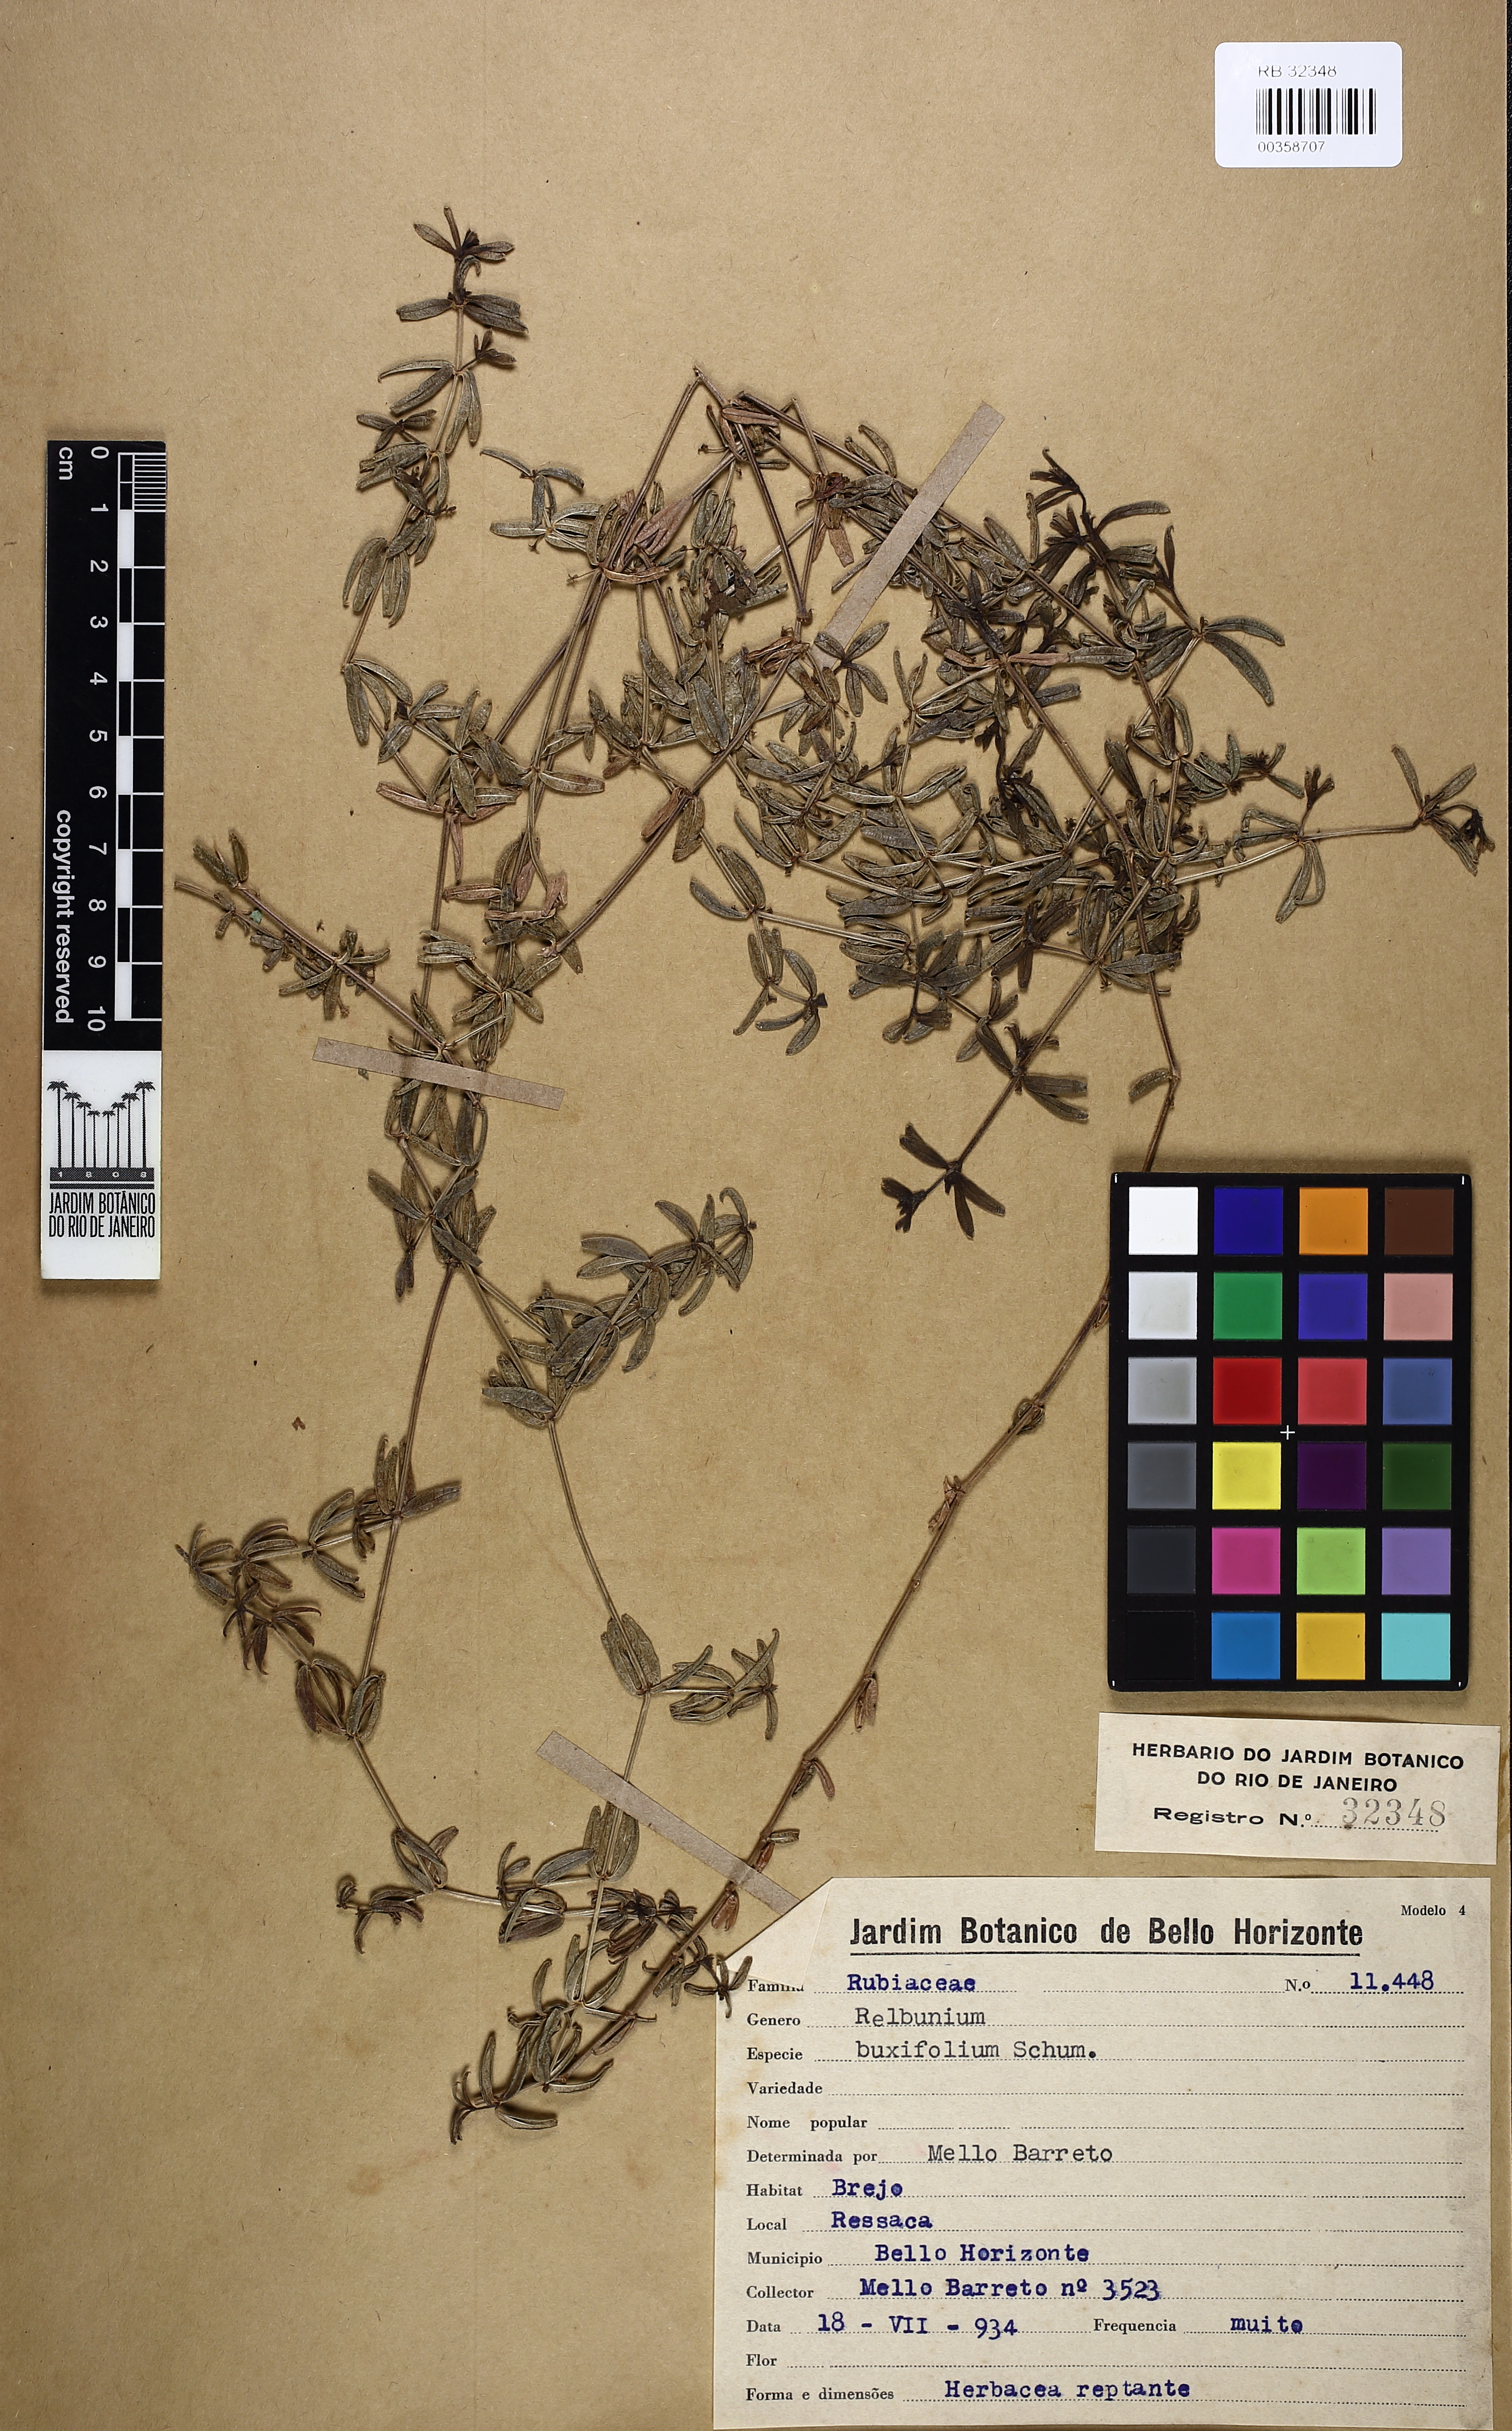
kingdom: Plantae
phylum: Tracheophyta
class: Magnoliopsida
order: Gentianales
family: Rubiaceae
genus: Galium
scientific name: Galium hypocarpium
